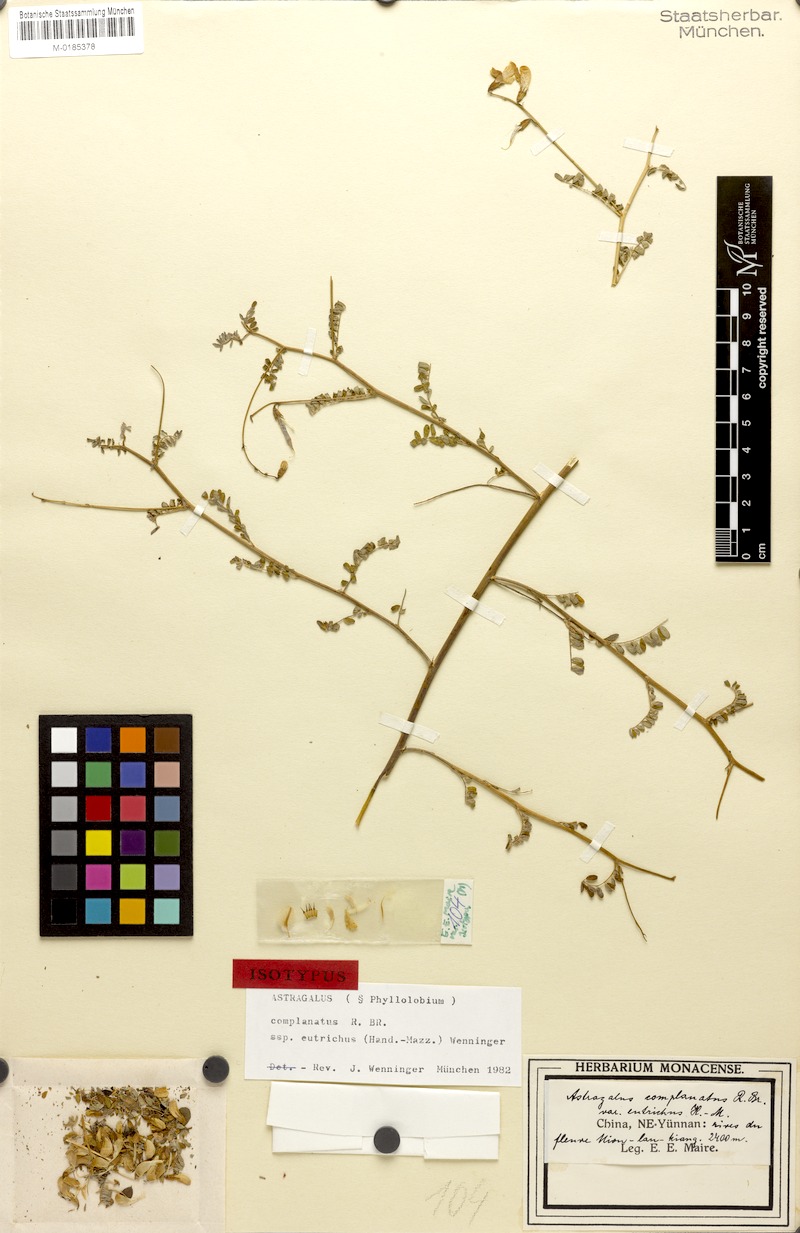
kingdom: Plantae
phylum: Tracheophyta
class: Magnoliopsida
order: Fabales
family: Fabaceae
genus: Phyllolobium
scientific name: Phyllolobium eutrichus
